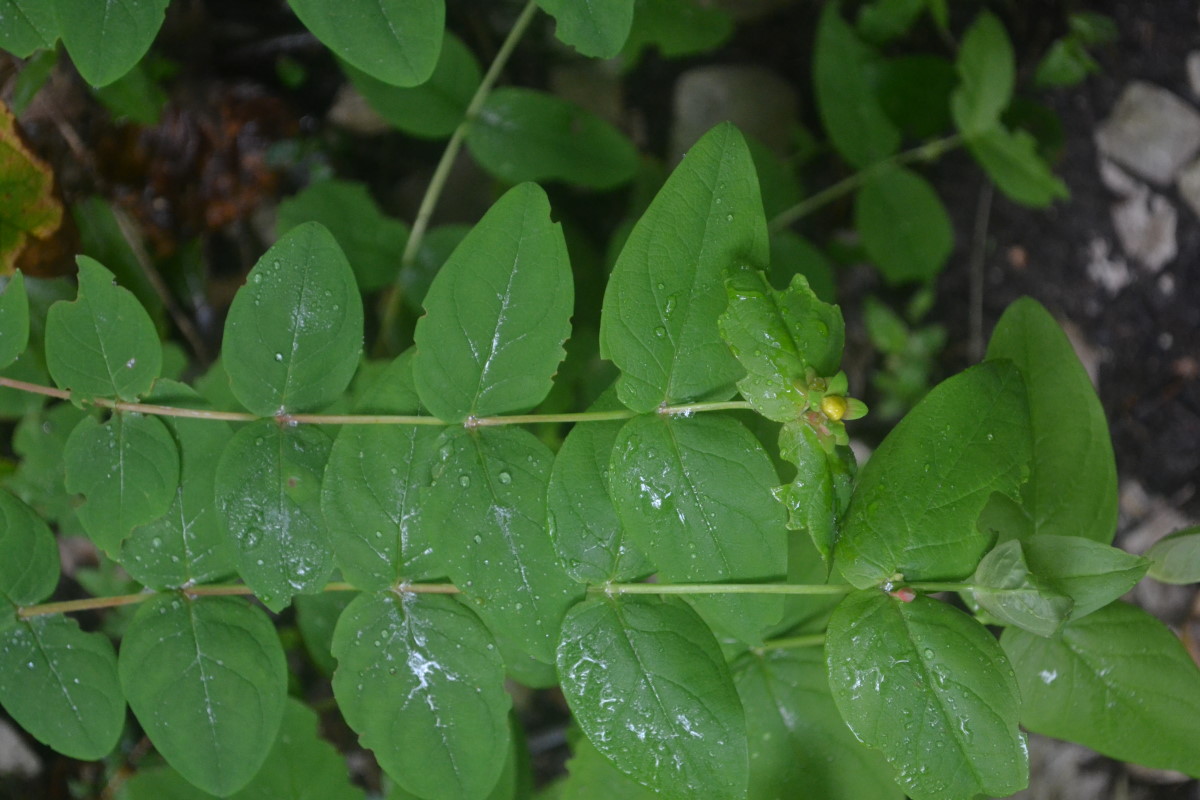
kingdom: Plantae
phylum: Tracheophyta
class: Magnoliopsida
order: Malpighiales
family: Hypericaceae
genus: Hypericum
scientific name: Hypericum
